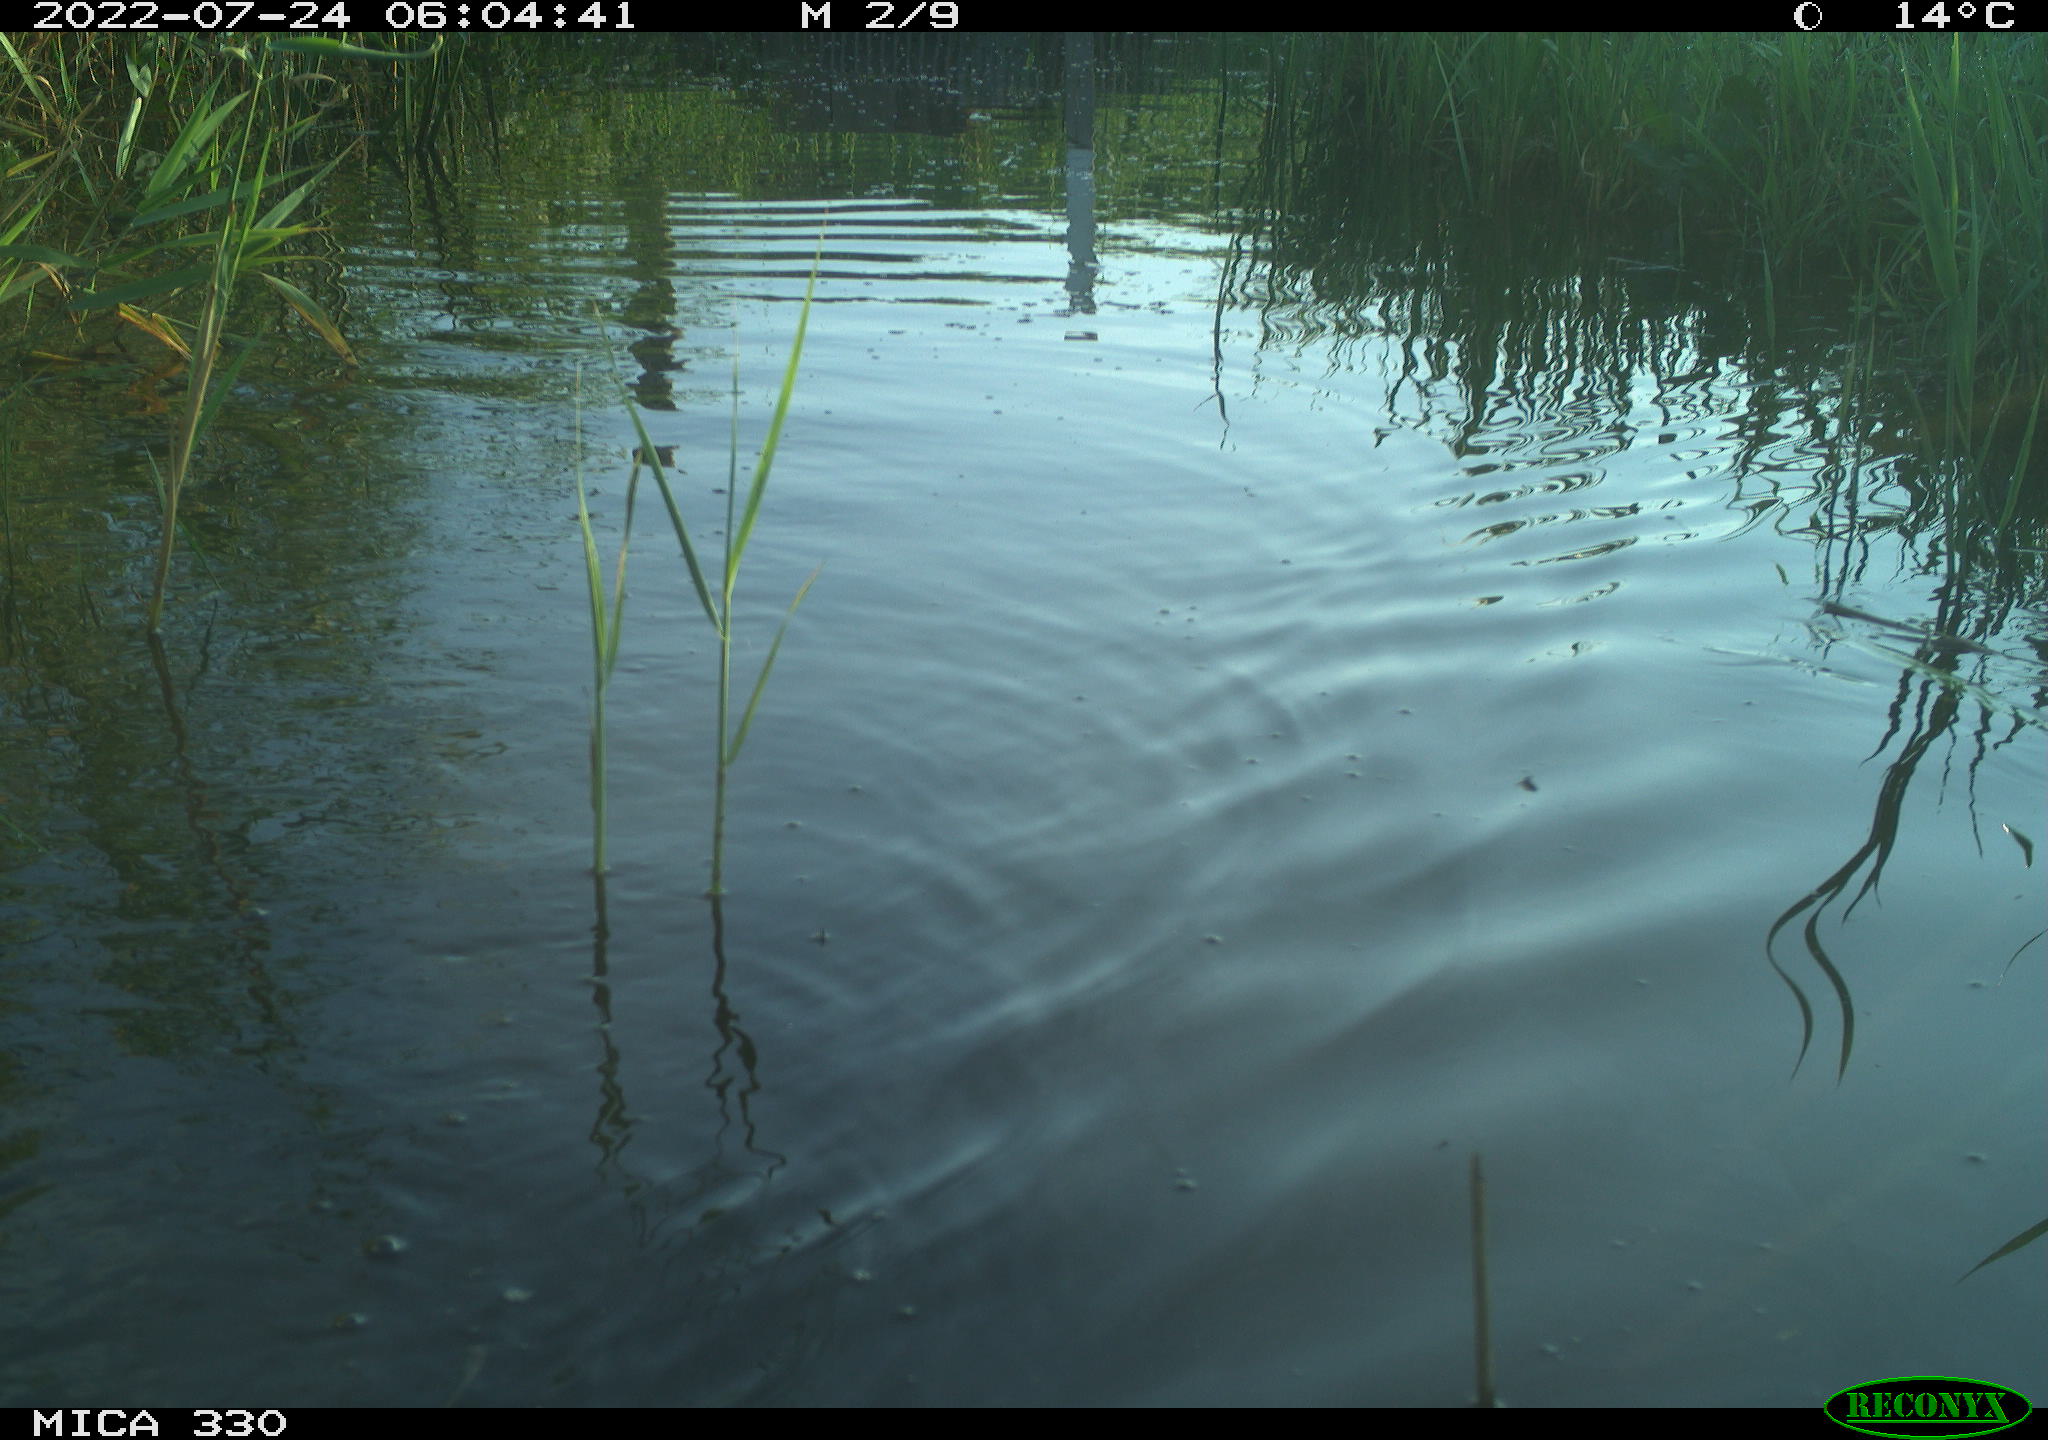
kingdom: Animalia
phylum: Chordata
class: Aves
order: Anseriformes
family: Anatidae
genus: Anas
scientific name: Anas platyrhynchos
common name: Mallard
